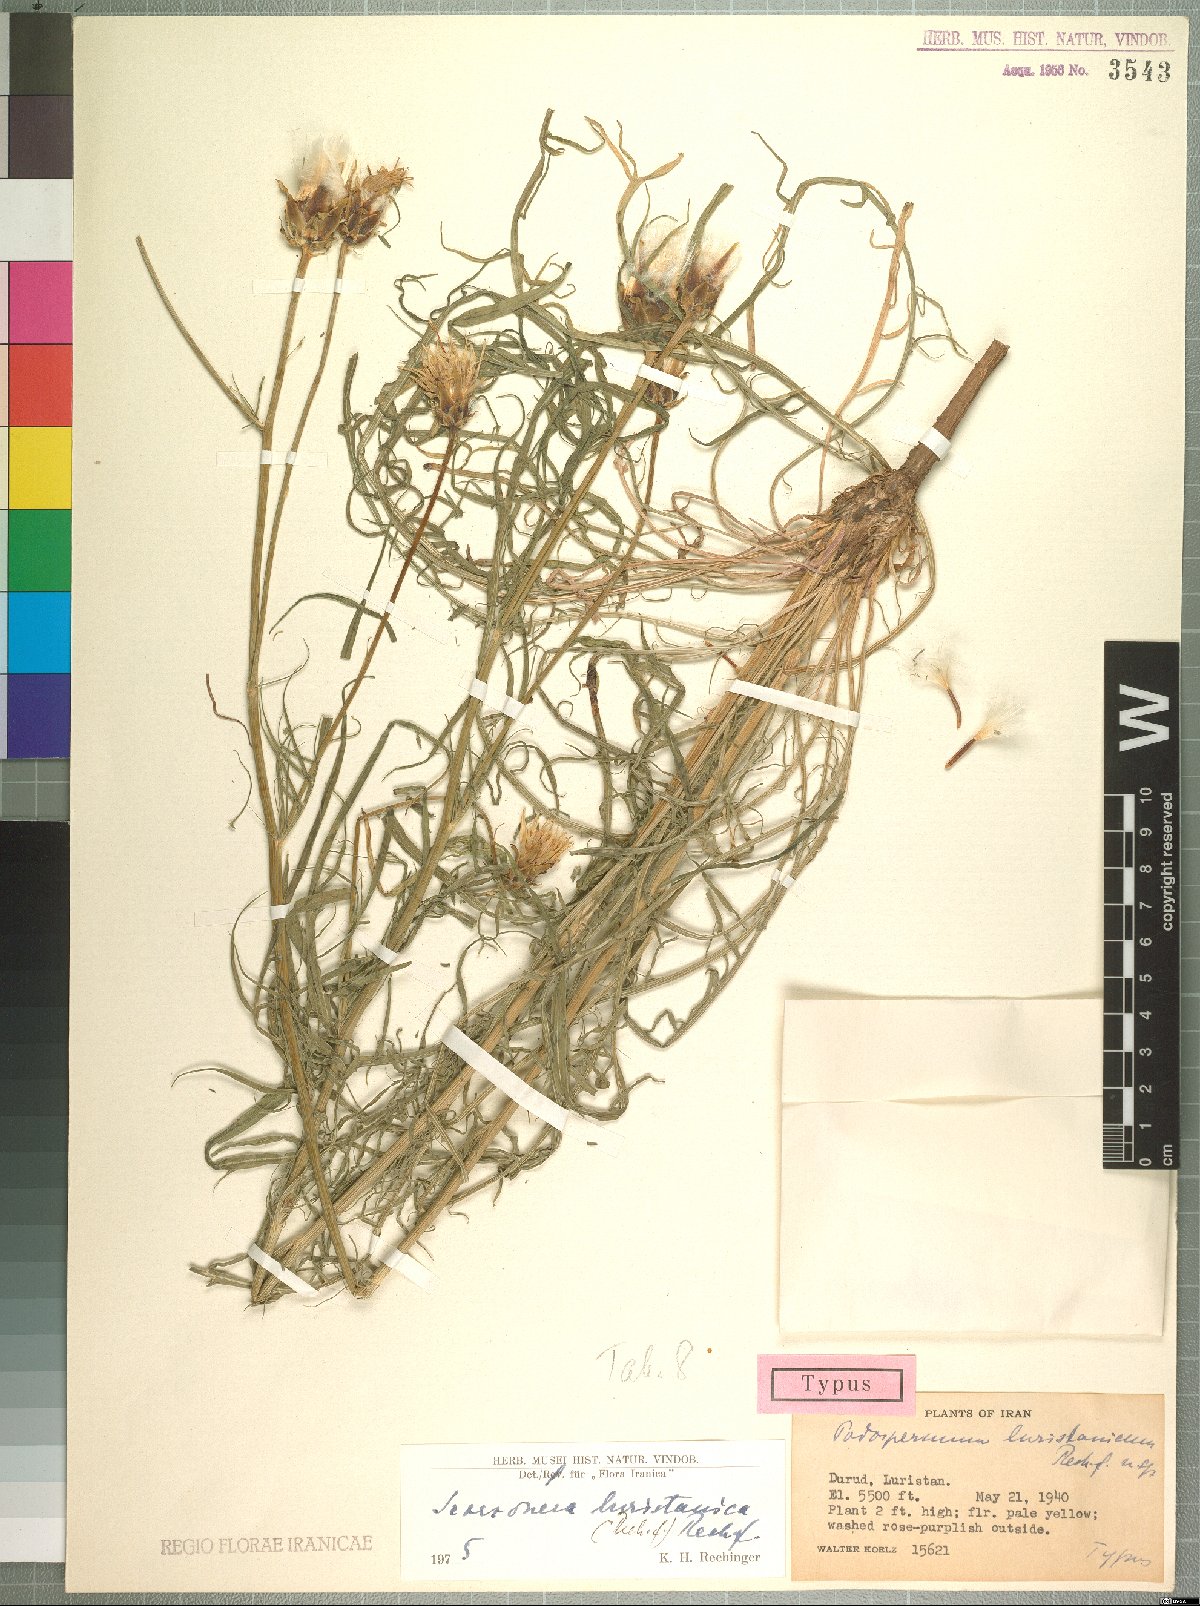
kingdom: Plantae
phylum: Tracheophyta
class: Magnoliopsida
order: Asterales
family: Asteraceae
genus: Scorzonera
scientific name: Scorzonera persepolitana
